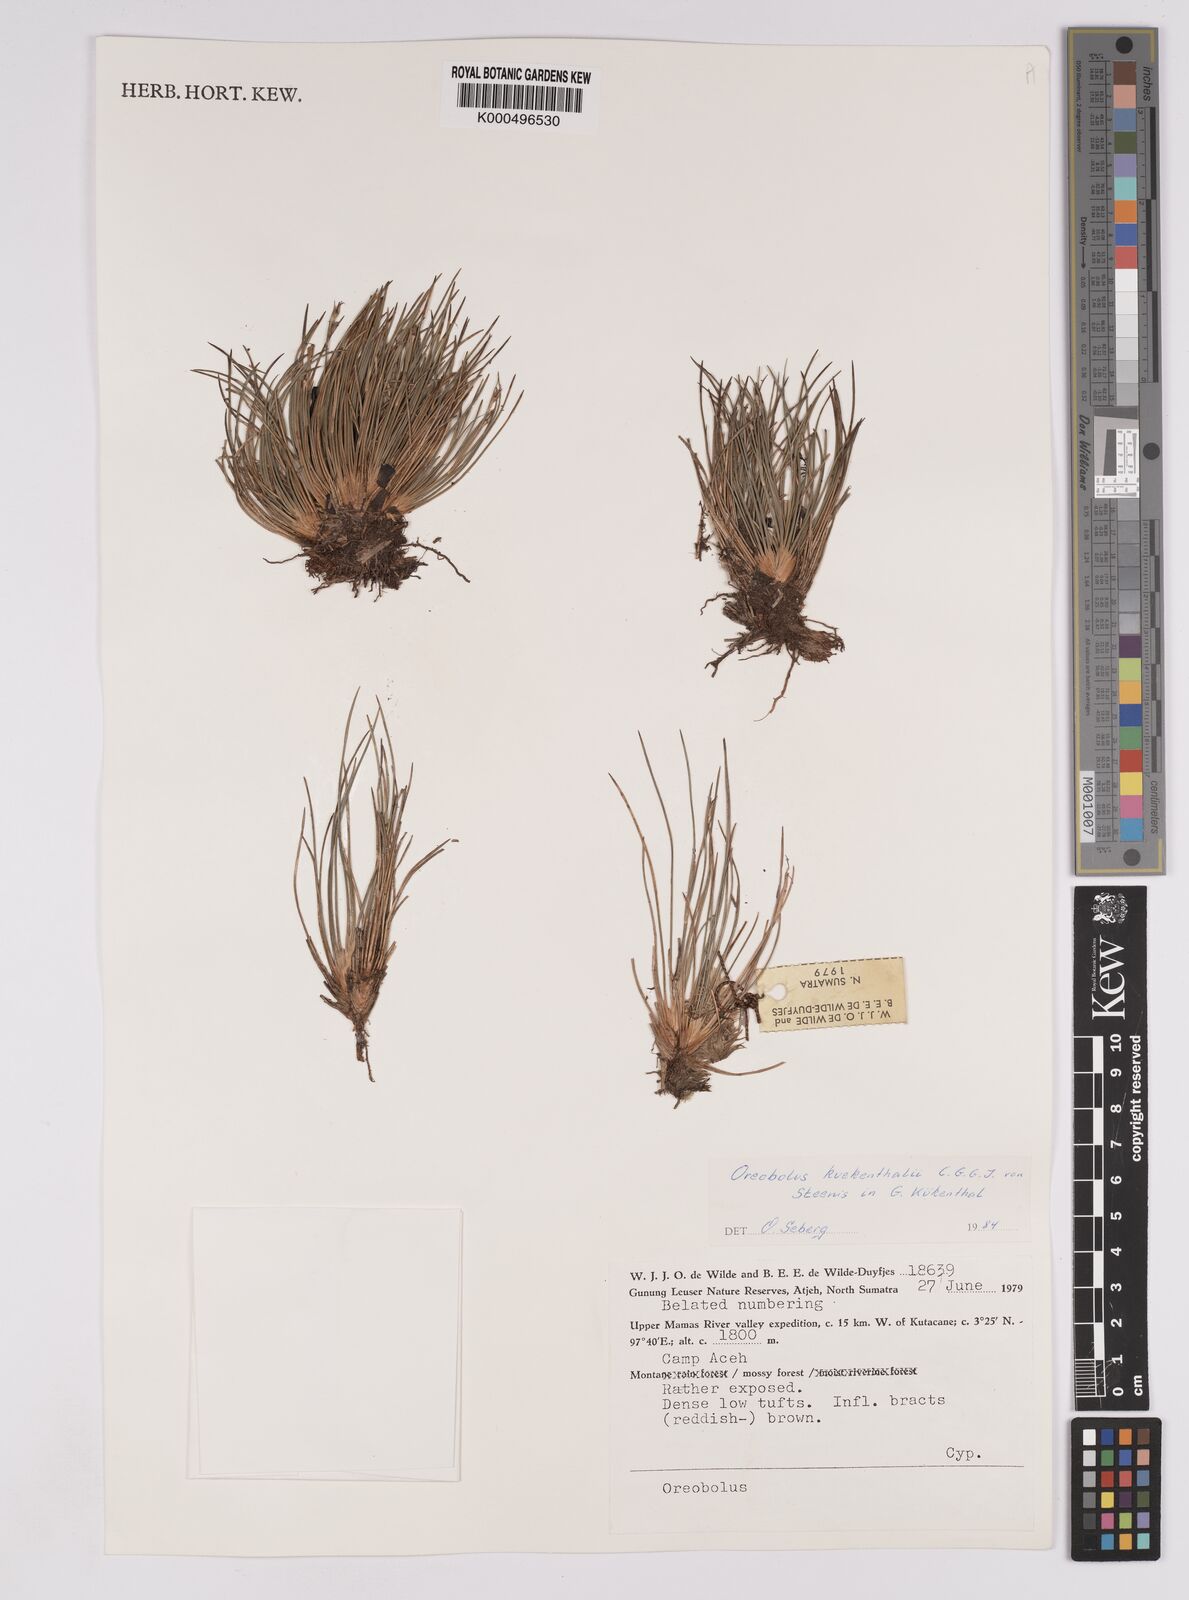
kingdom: Plantae
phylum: Tracheophyta
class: Liliopsida
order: Poales
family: Cyperaceae
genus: Oreobolus
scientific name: Oreobolus
